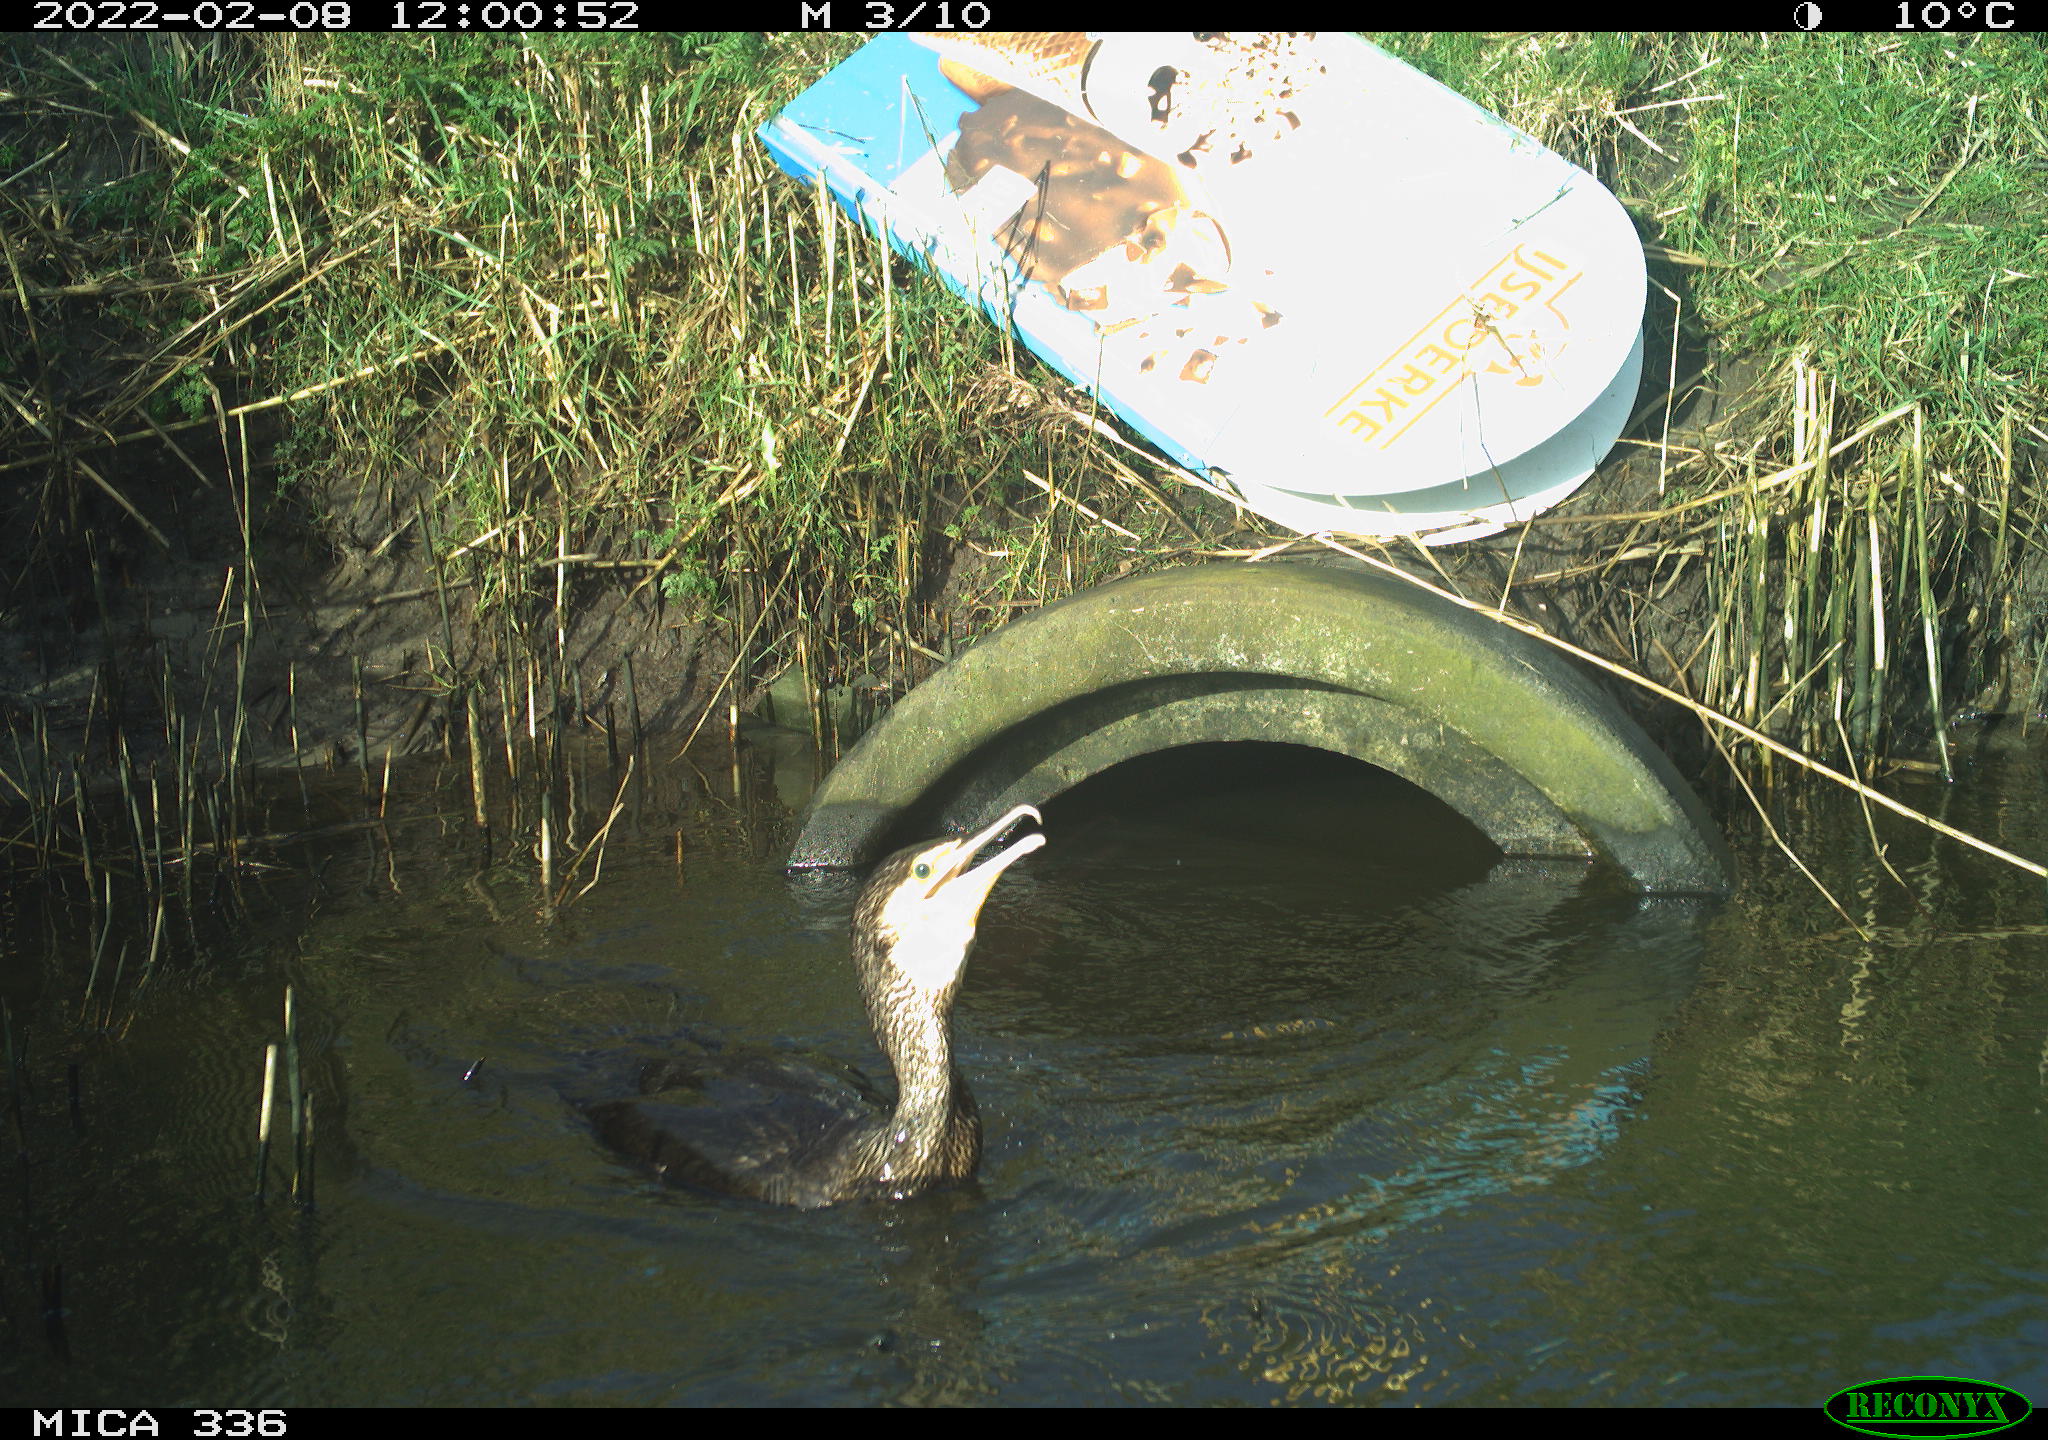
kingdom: Animalia
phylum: Chordata
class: Aves
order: Suliformes
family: Phalacrocoracidae
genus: Phalacrocorax
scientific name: Phalacrocorax carbo
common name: Great cormorant
